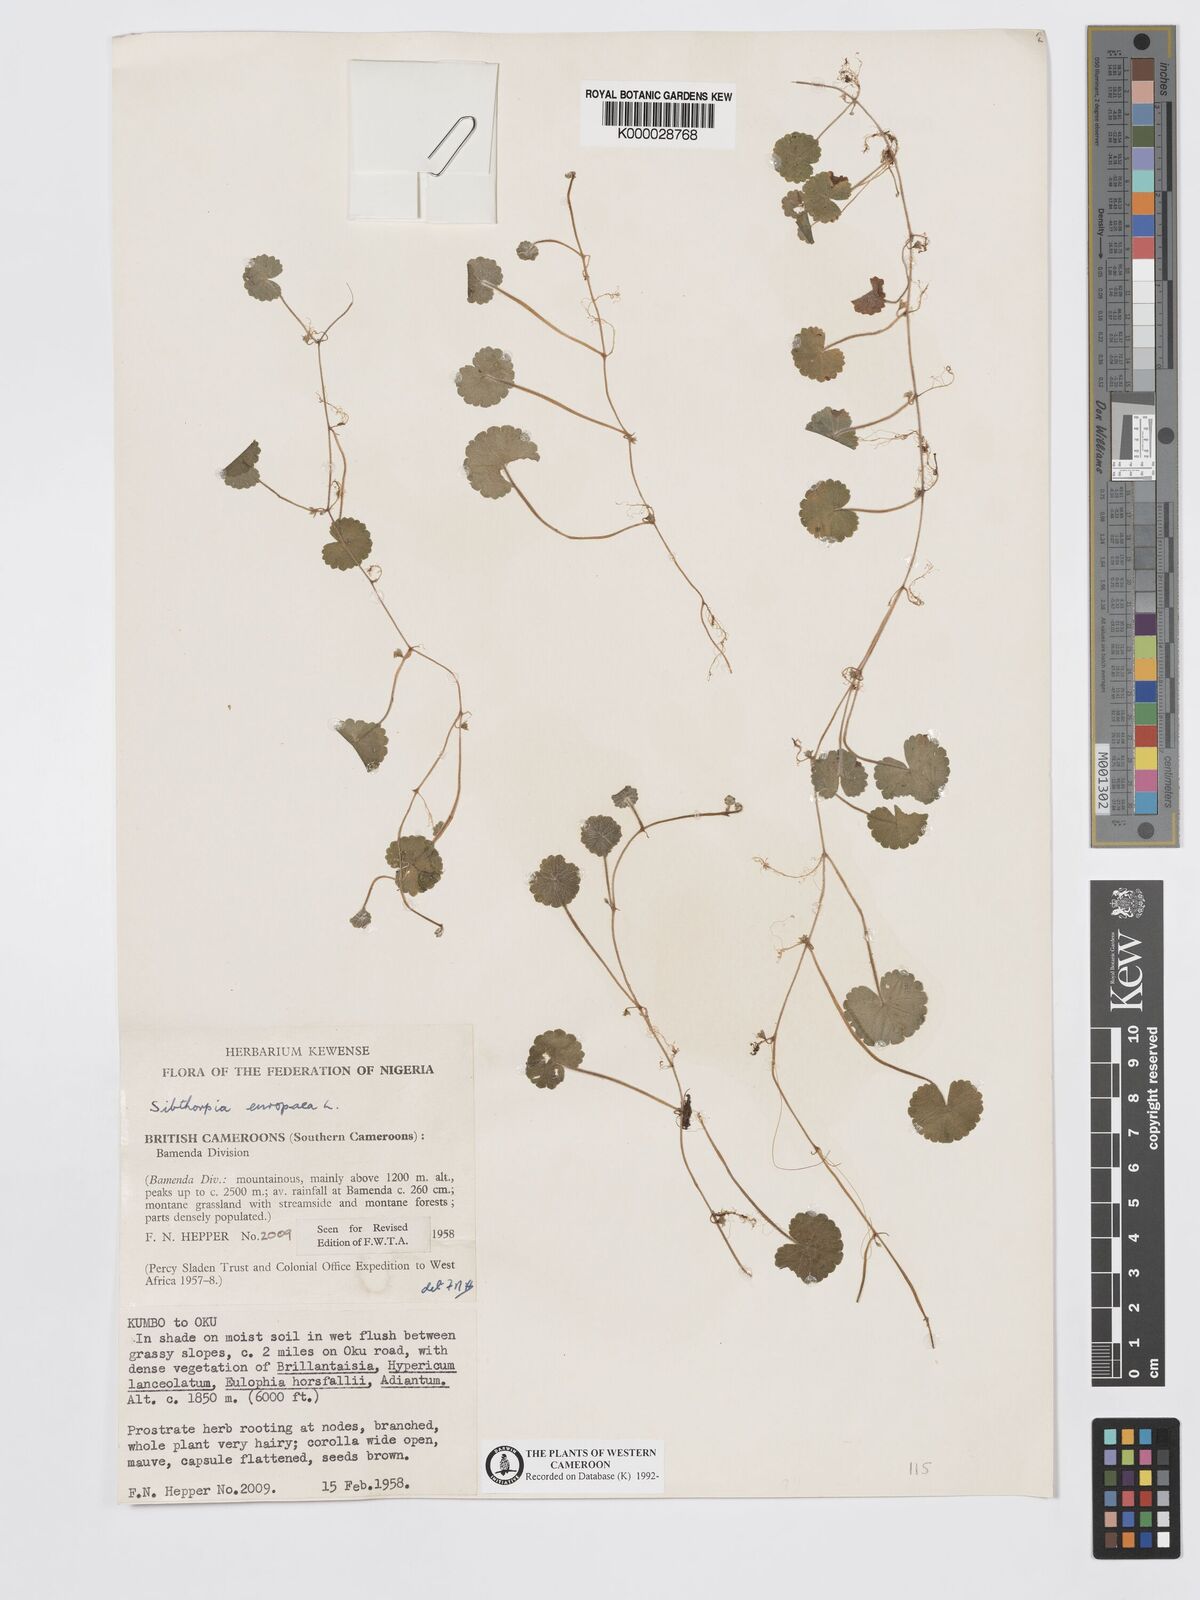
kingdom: Plantae
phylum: Tracheophyta
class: Magnoliopsida
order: Lamiales
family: Plantaginaceae
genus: Sibthorpia
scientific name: Sibthorpia europaea
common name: Cornish moneywort
